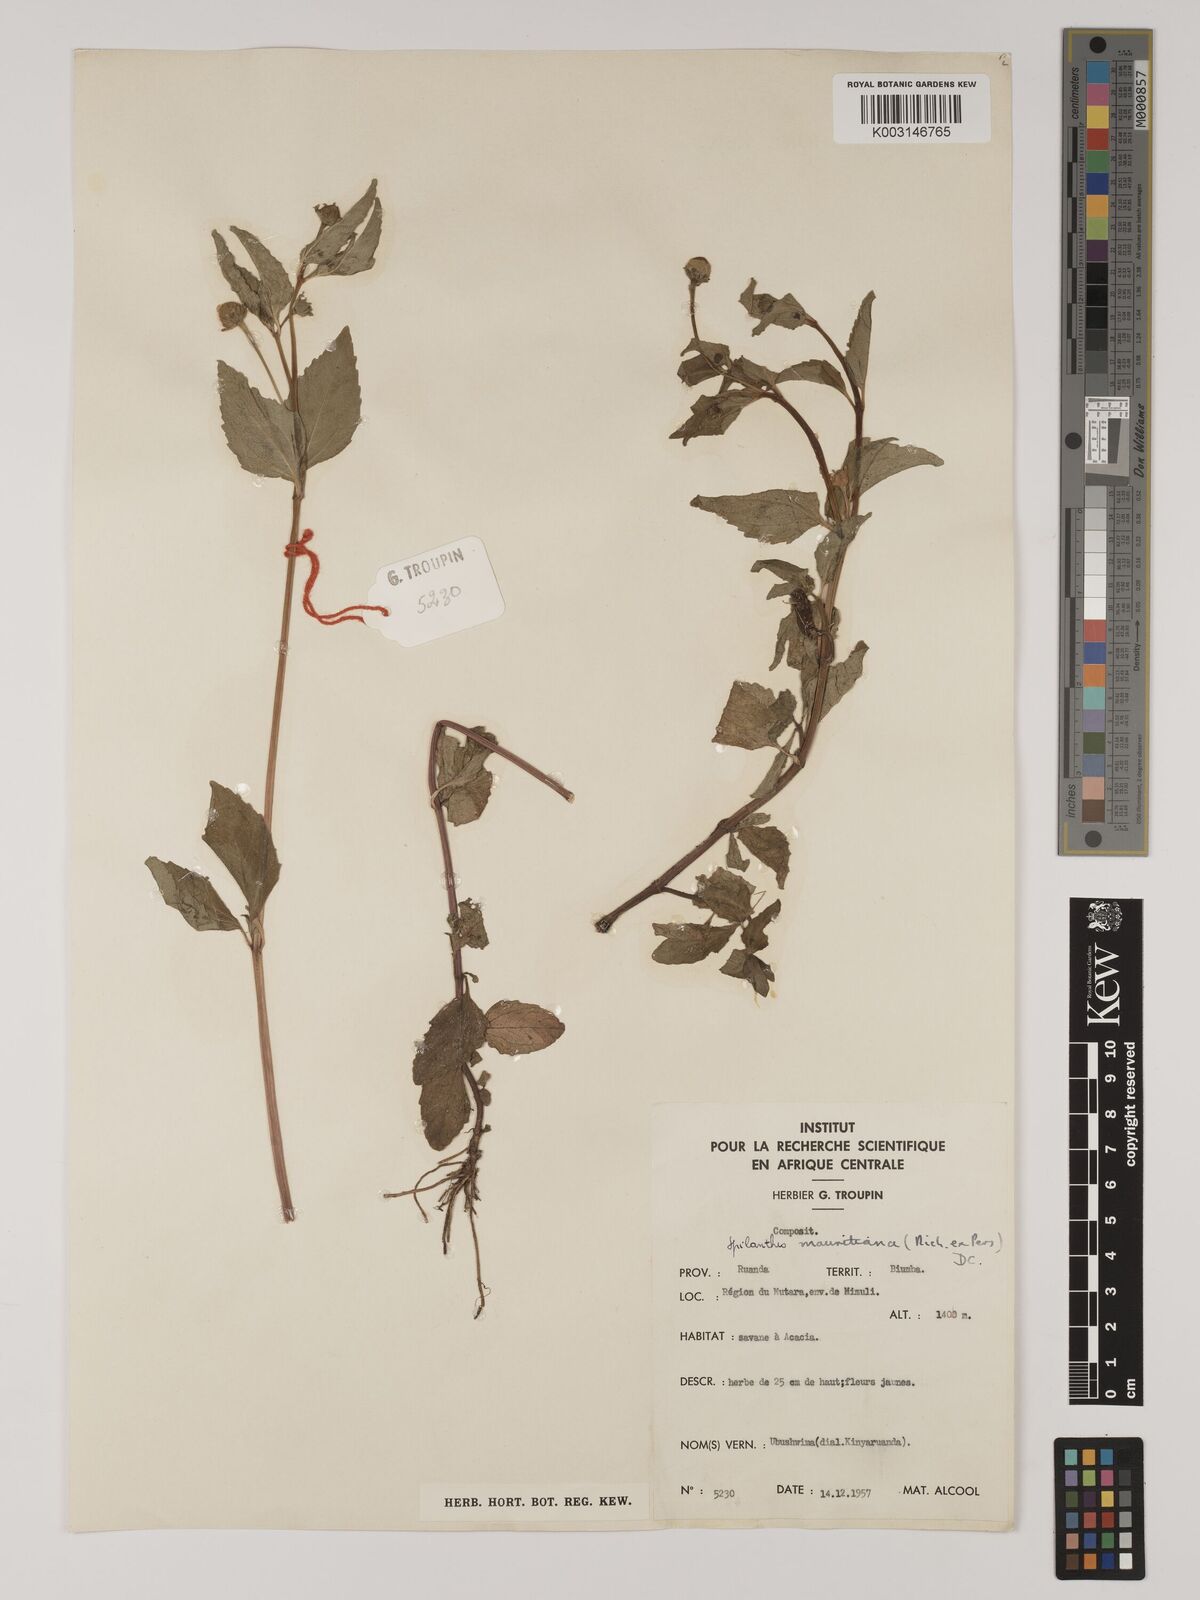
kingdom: Plantae
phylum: Tracheophyta
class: Magnoliopsida
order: Asterales
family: Asteraceae
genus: Blainvillea
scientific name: Blainvillea acmella
